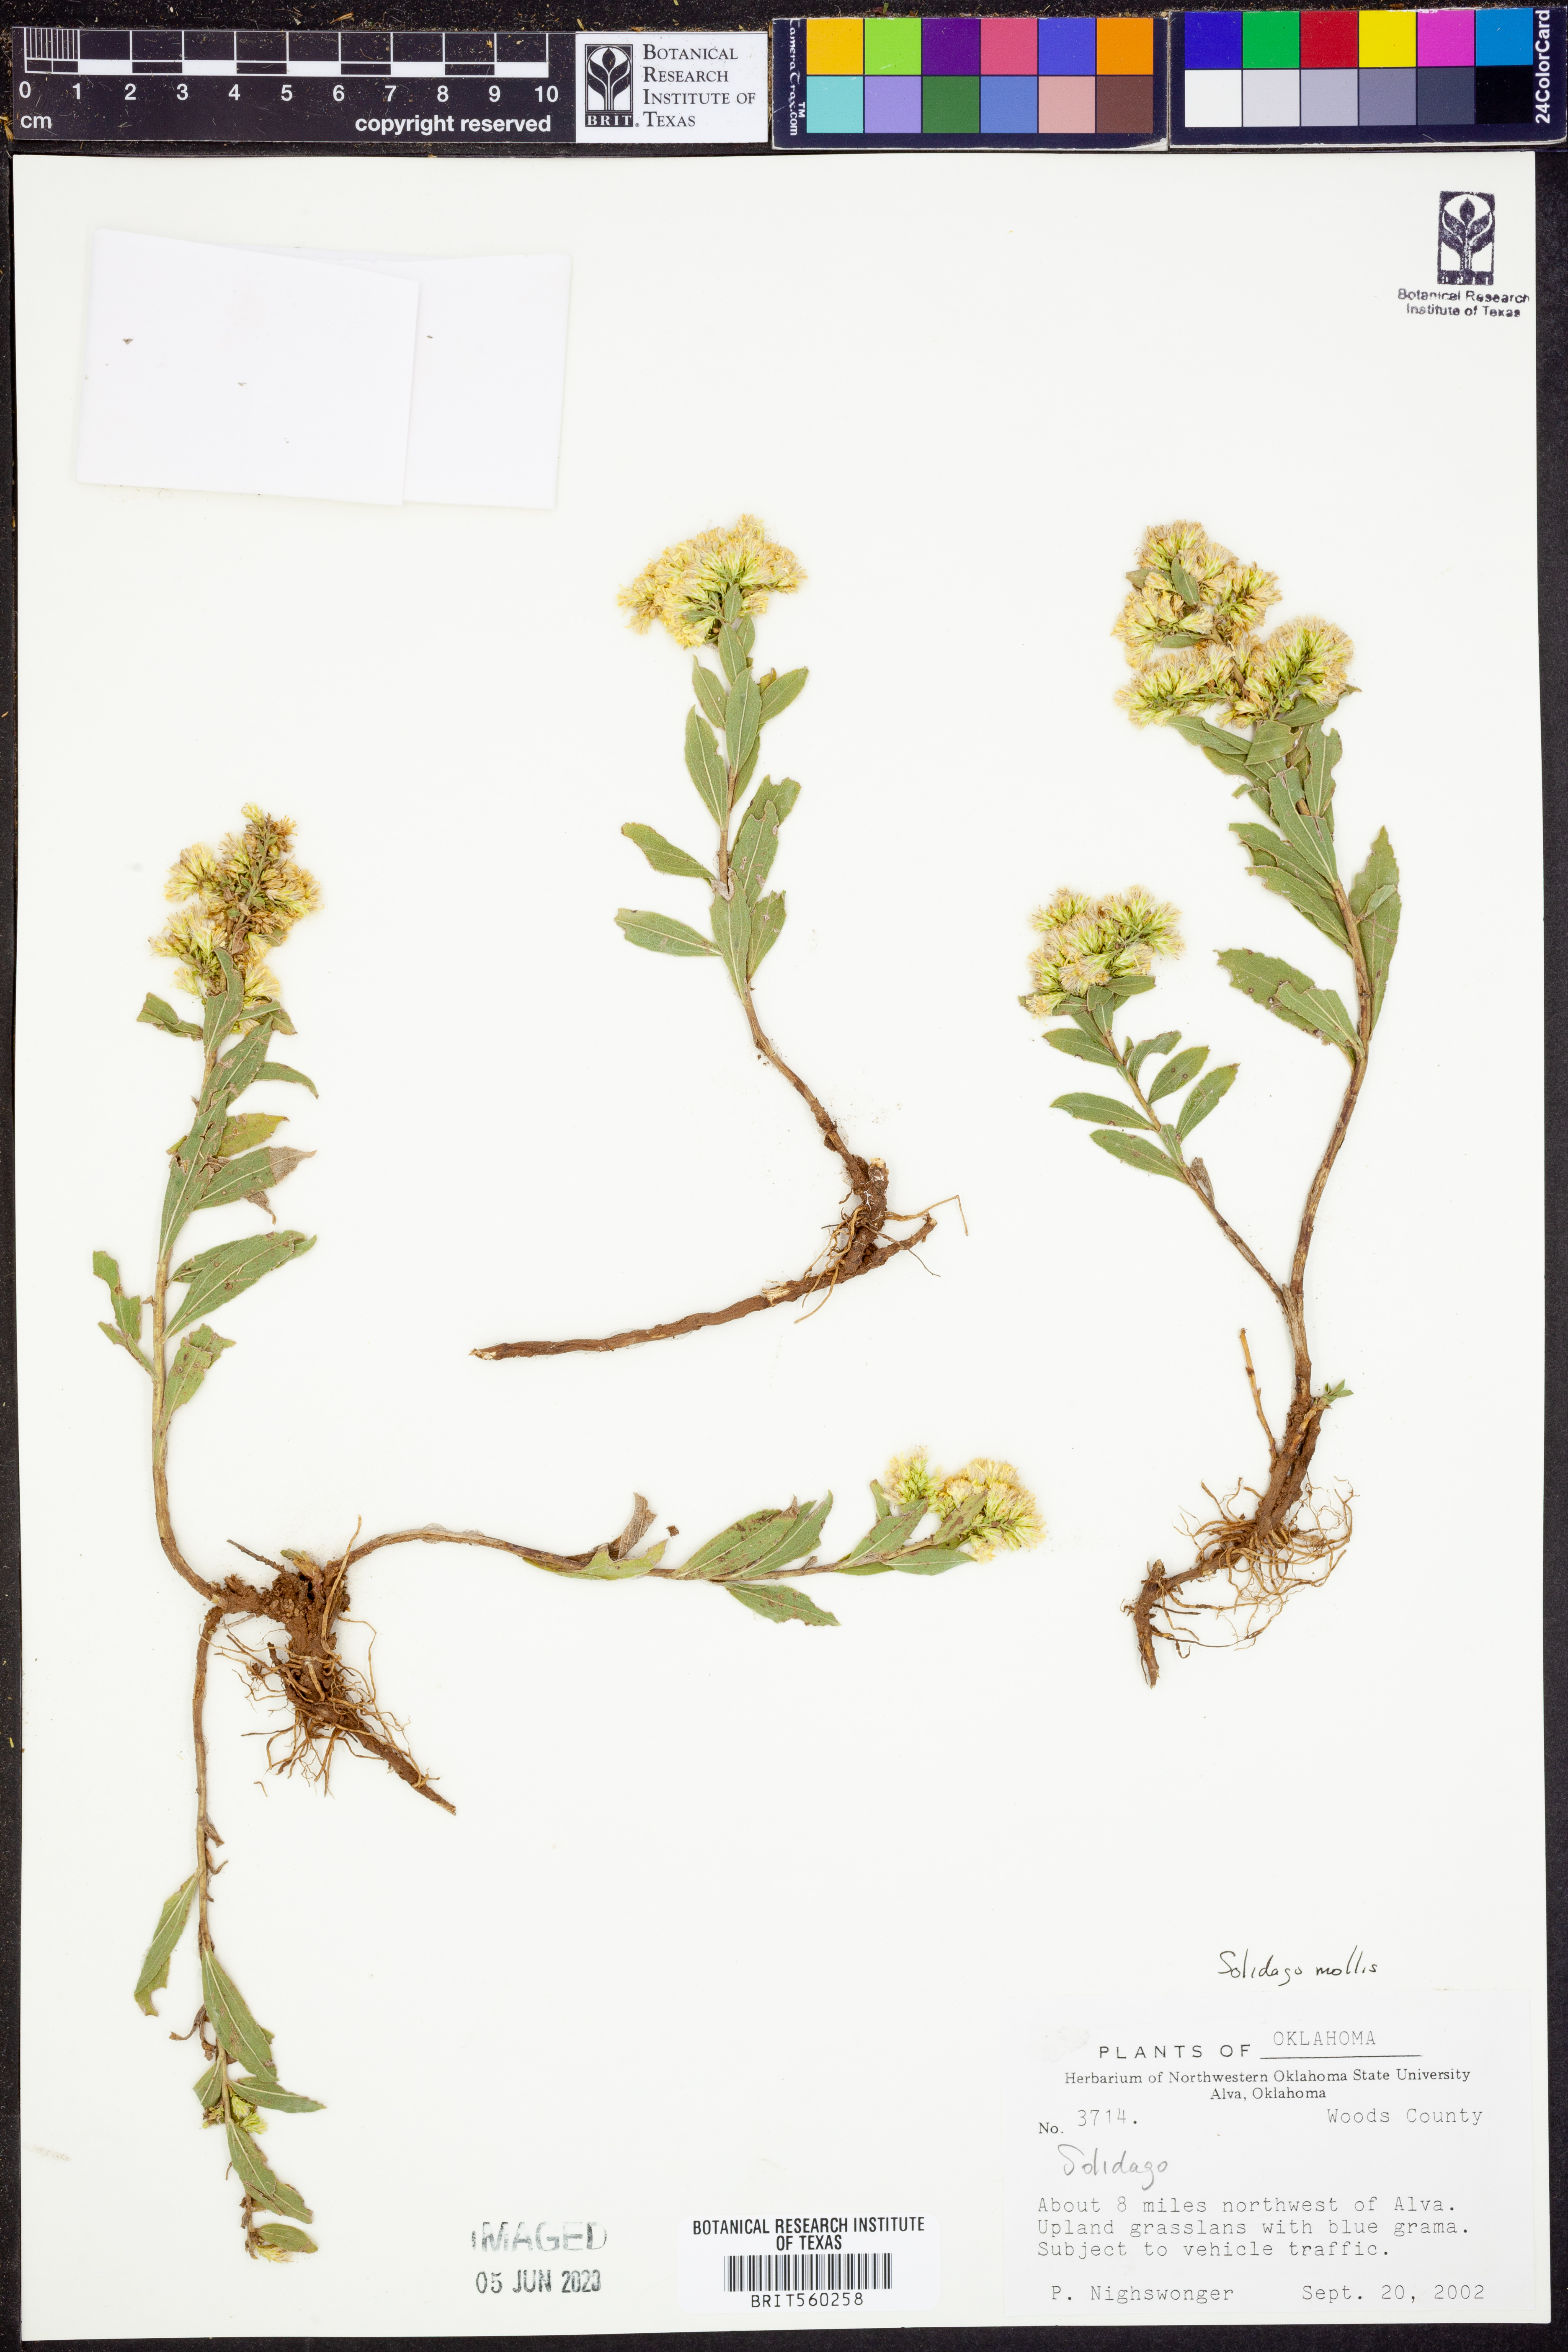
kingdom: Plantae
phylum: Tracheophyta
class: Magnoliopsida
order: Asterales
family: Asteraceae
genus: Solidago
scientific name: Solidago mollis
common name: Ashly goldenrod
